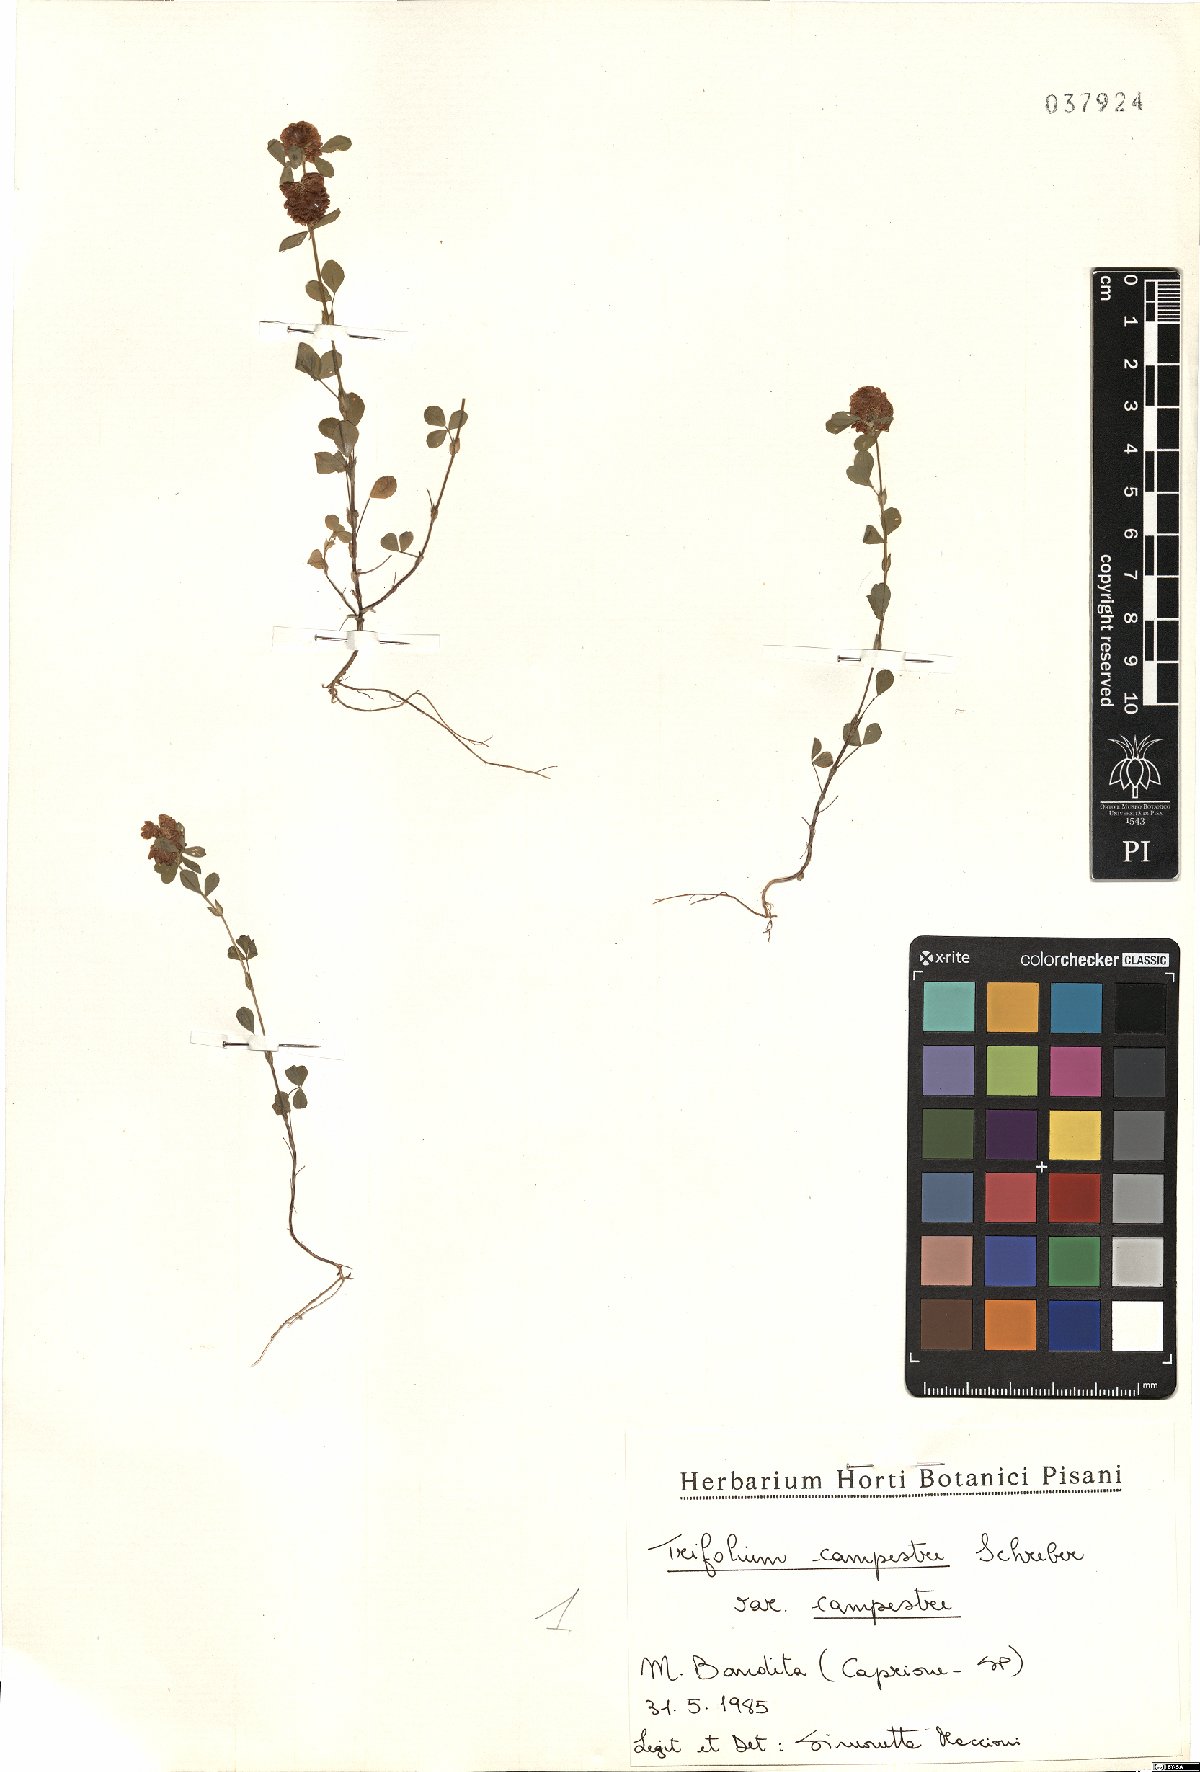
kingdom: Plantae
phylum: Tracheophyta
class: Magnoliopsida
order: Fabales
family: Fabaceae
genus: Trifolium
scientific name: Trifolium campestre
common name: Field clover
